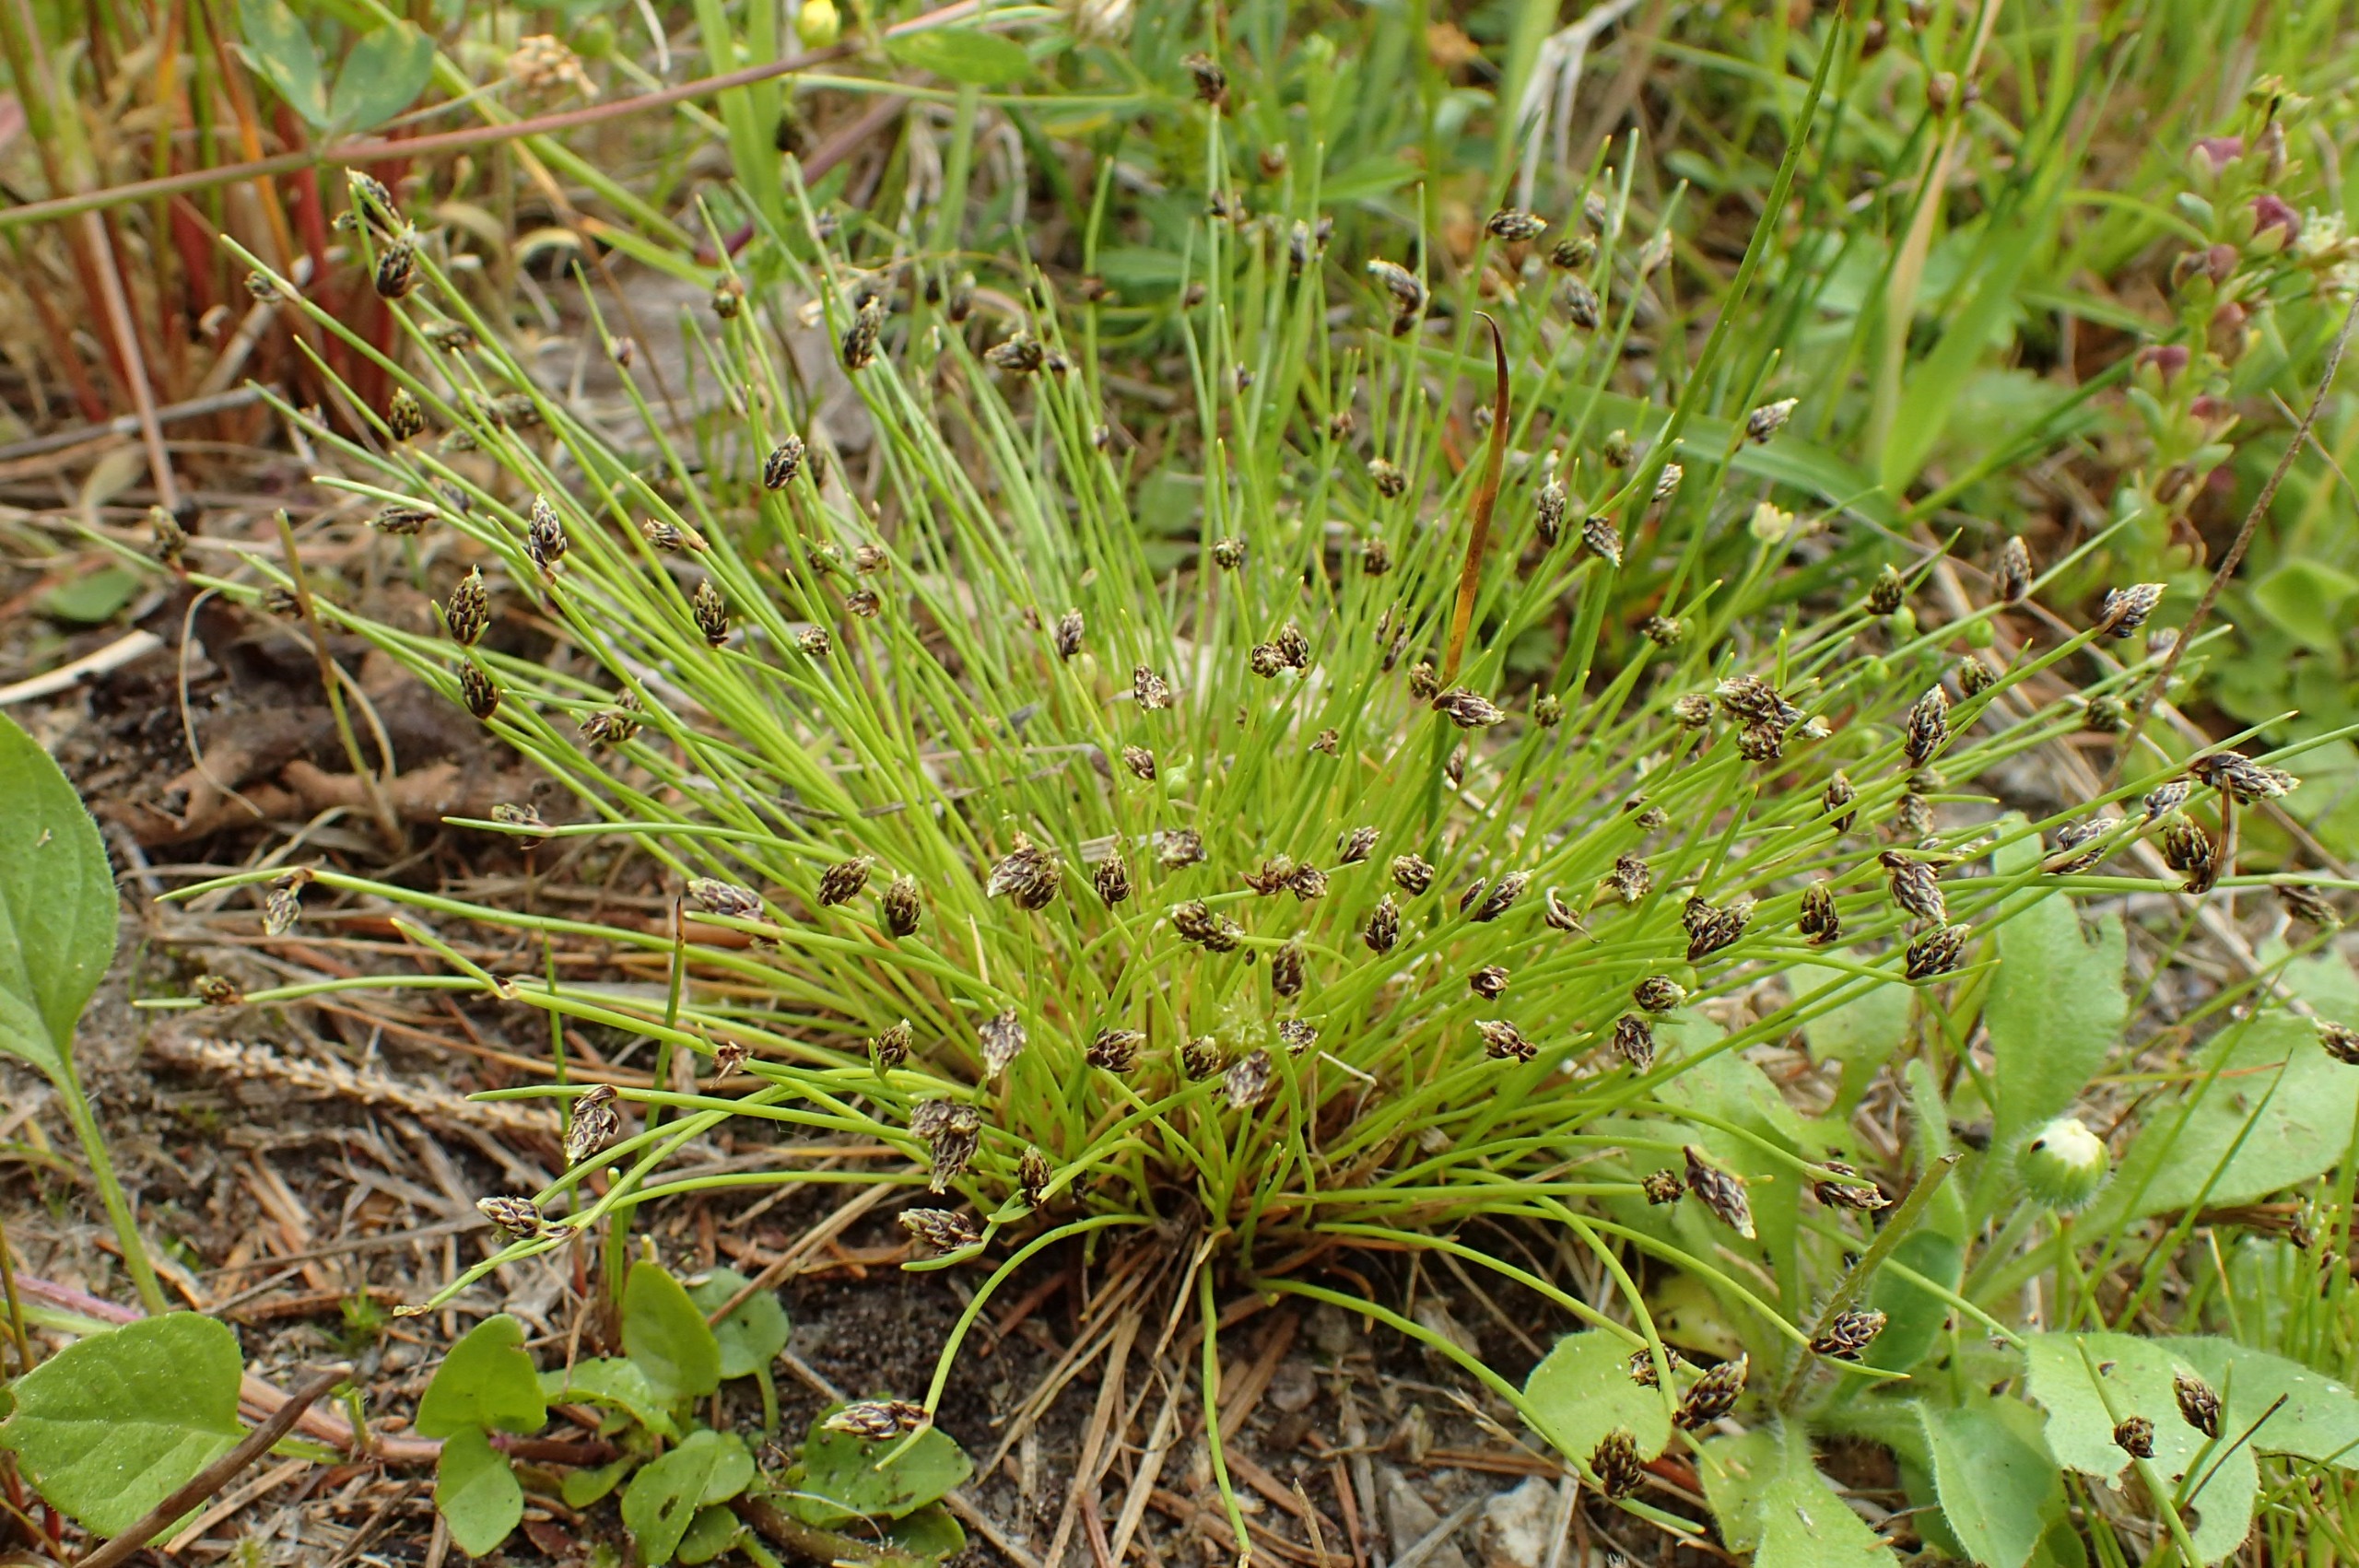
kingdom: Plantae
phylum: Tracheophyta
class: Liliopsida
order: Poales
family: Cyperaceae
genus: Isolepis
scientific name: Isolepis setacea
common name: Børste-kogleaks
